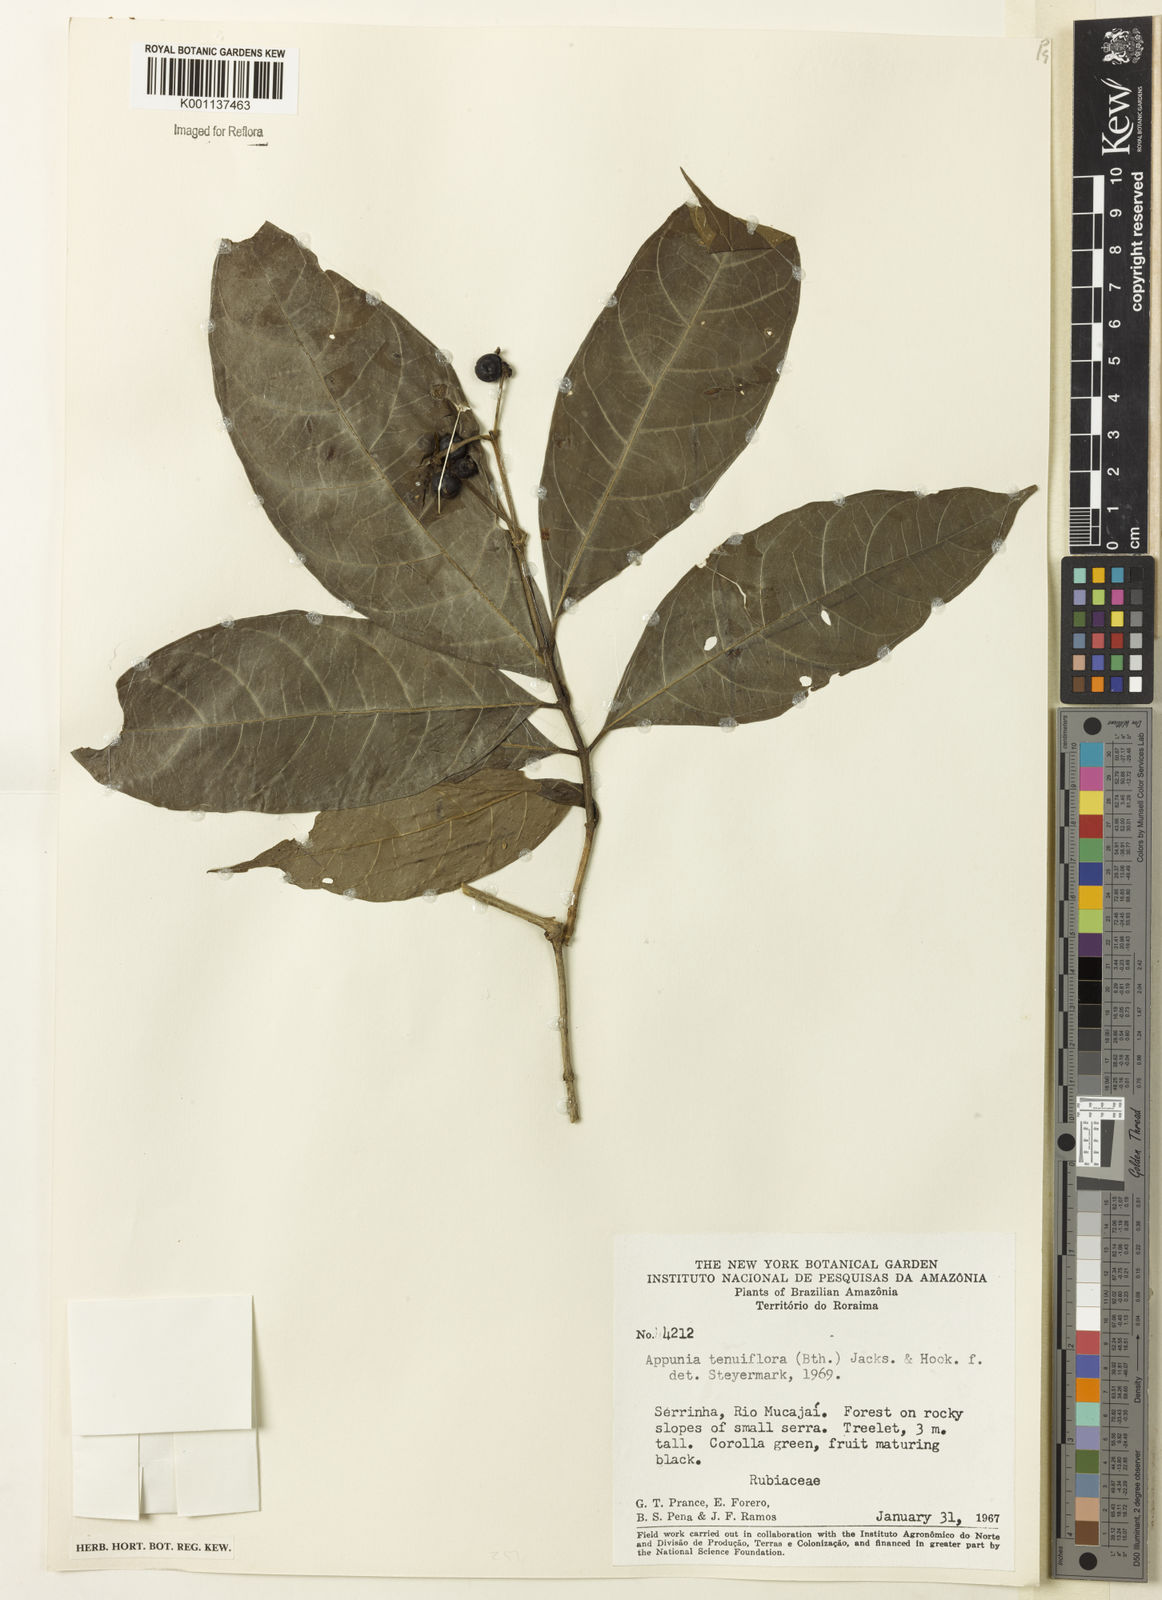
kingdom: Plantae
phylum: Tracheophyta
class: Magnoliopsida
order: Gentianales
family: Rubiaceae
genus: Appunia
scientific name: Appunia tenuiflora
